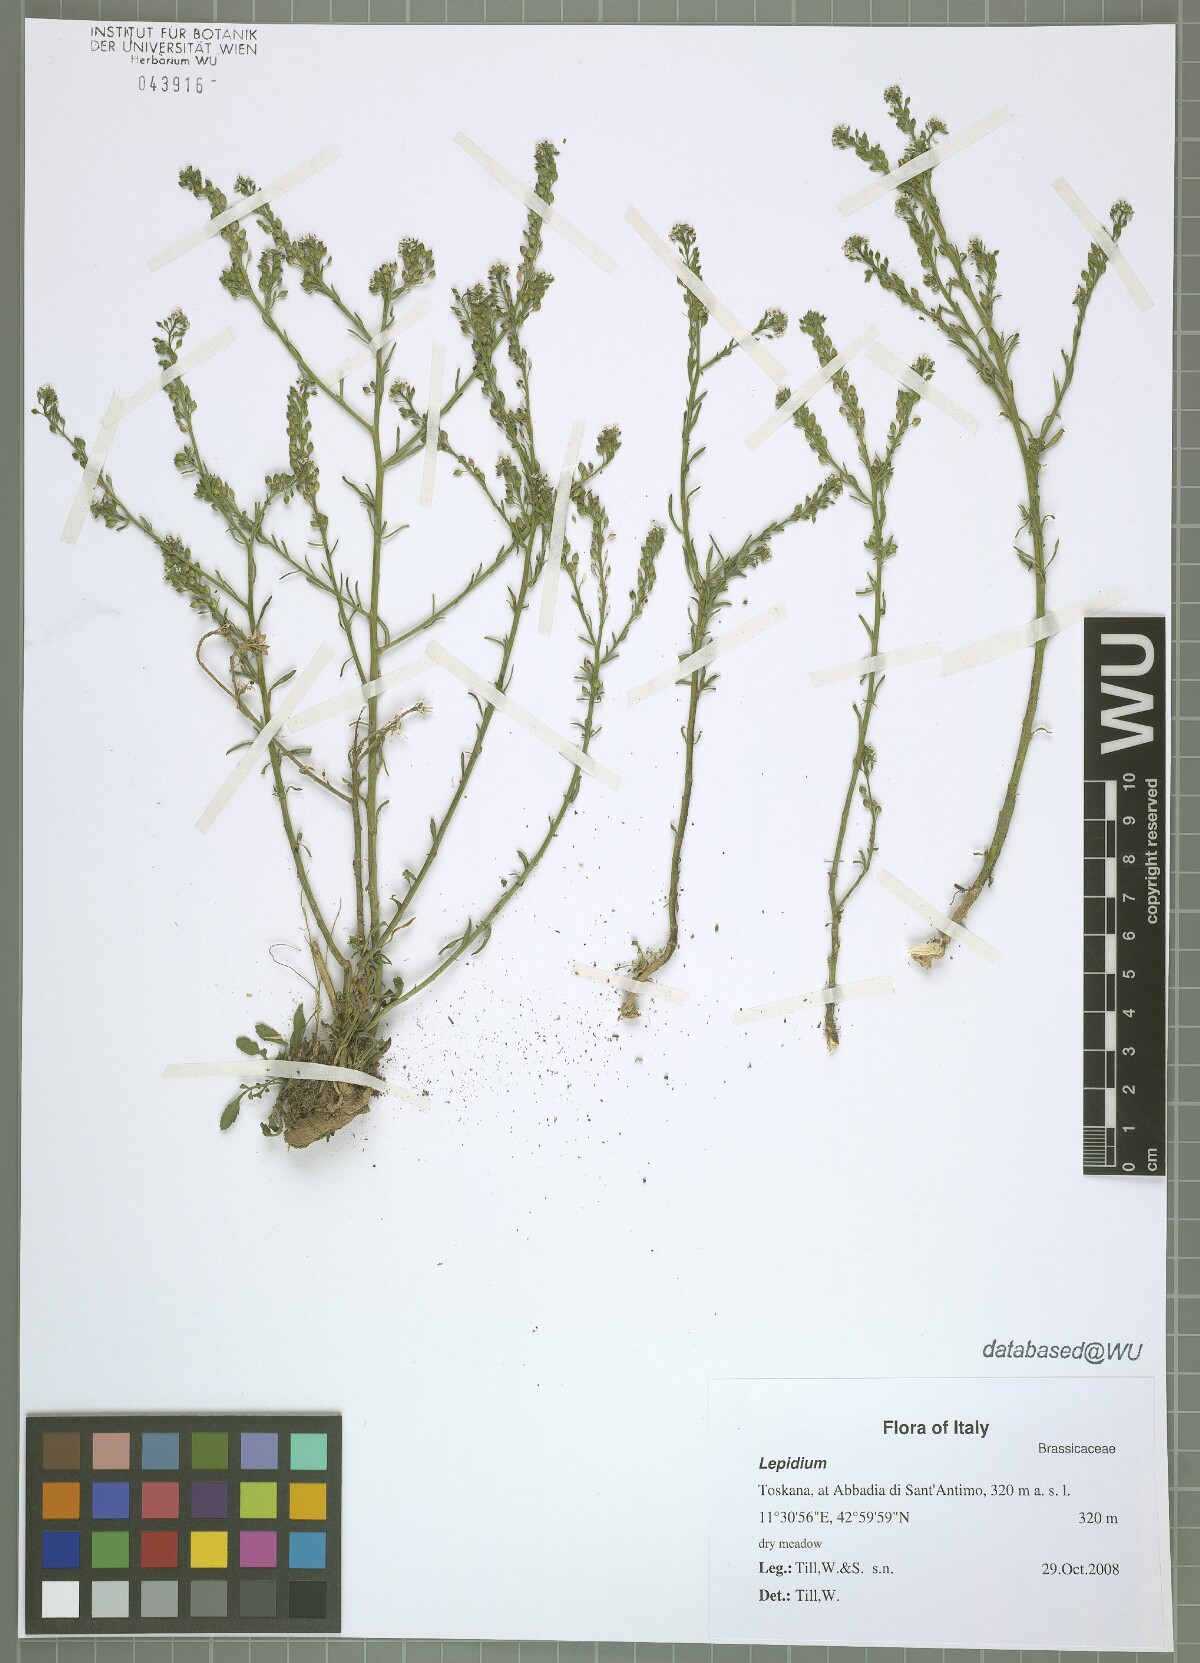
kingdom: Plantae
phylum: Tracheophyta
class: Magnoliopsida
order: Brassicales
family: Brassicaceae
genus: Lepidium
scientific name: Lepidium graminifolium
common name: Tall pepperwort
